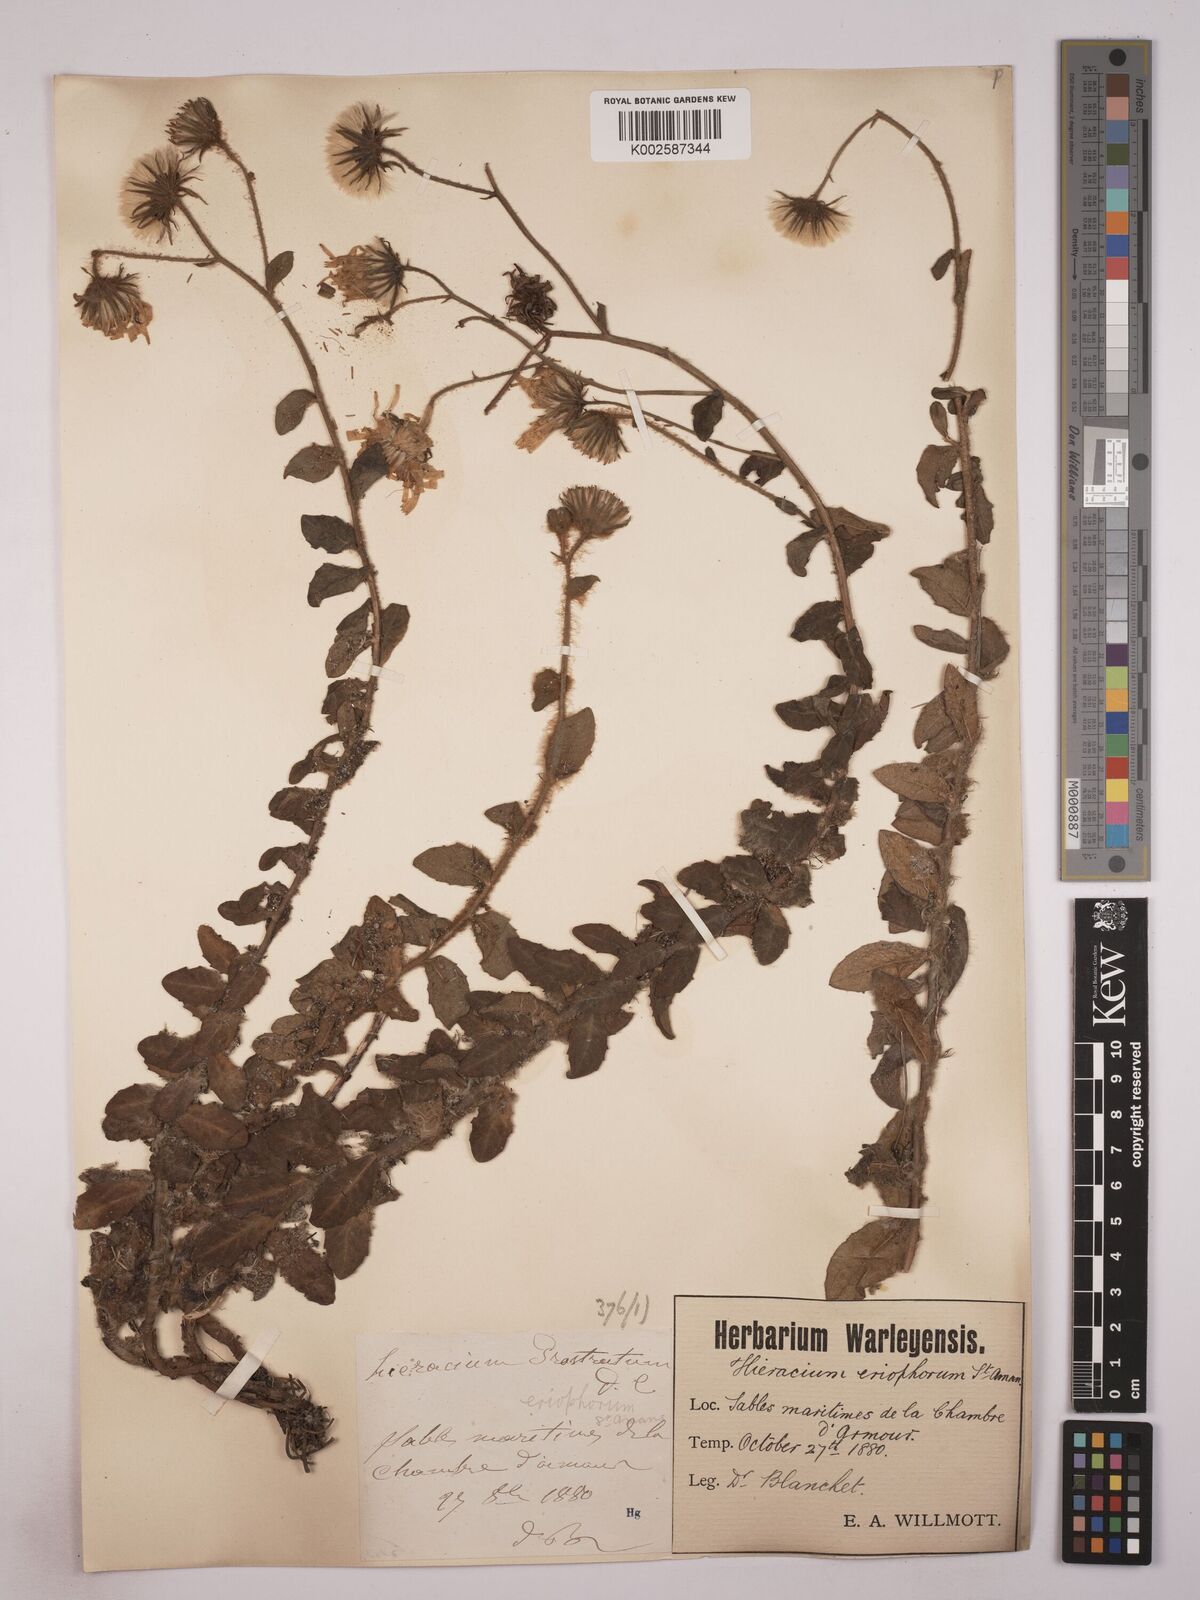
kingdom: Plantae
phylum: Tracheophyta
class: Magnoliopsida
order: Asterales
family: Asteraceae
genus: Hieracium
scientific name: Hieracium prostratum
